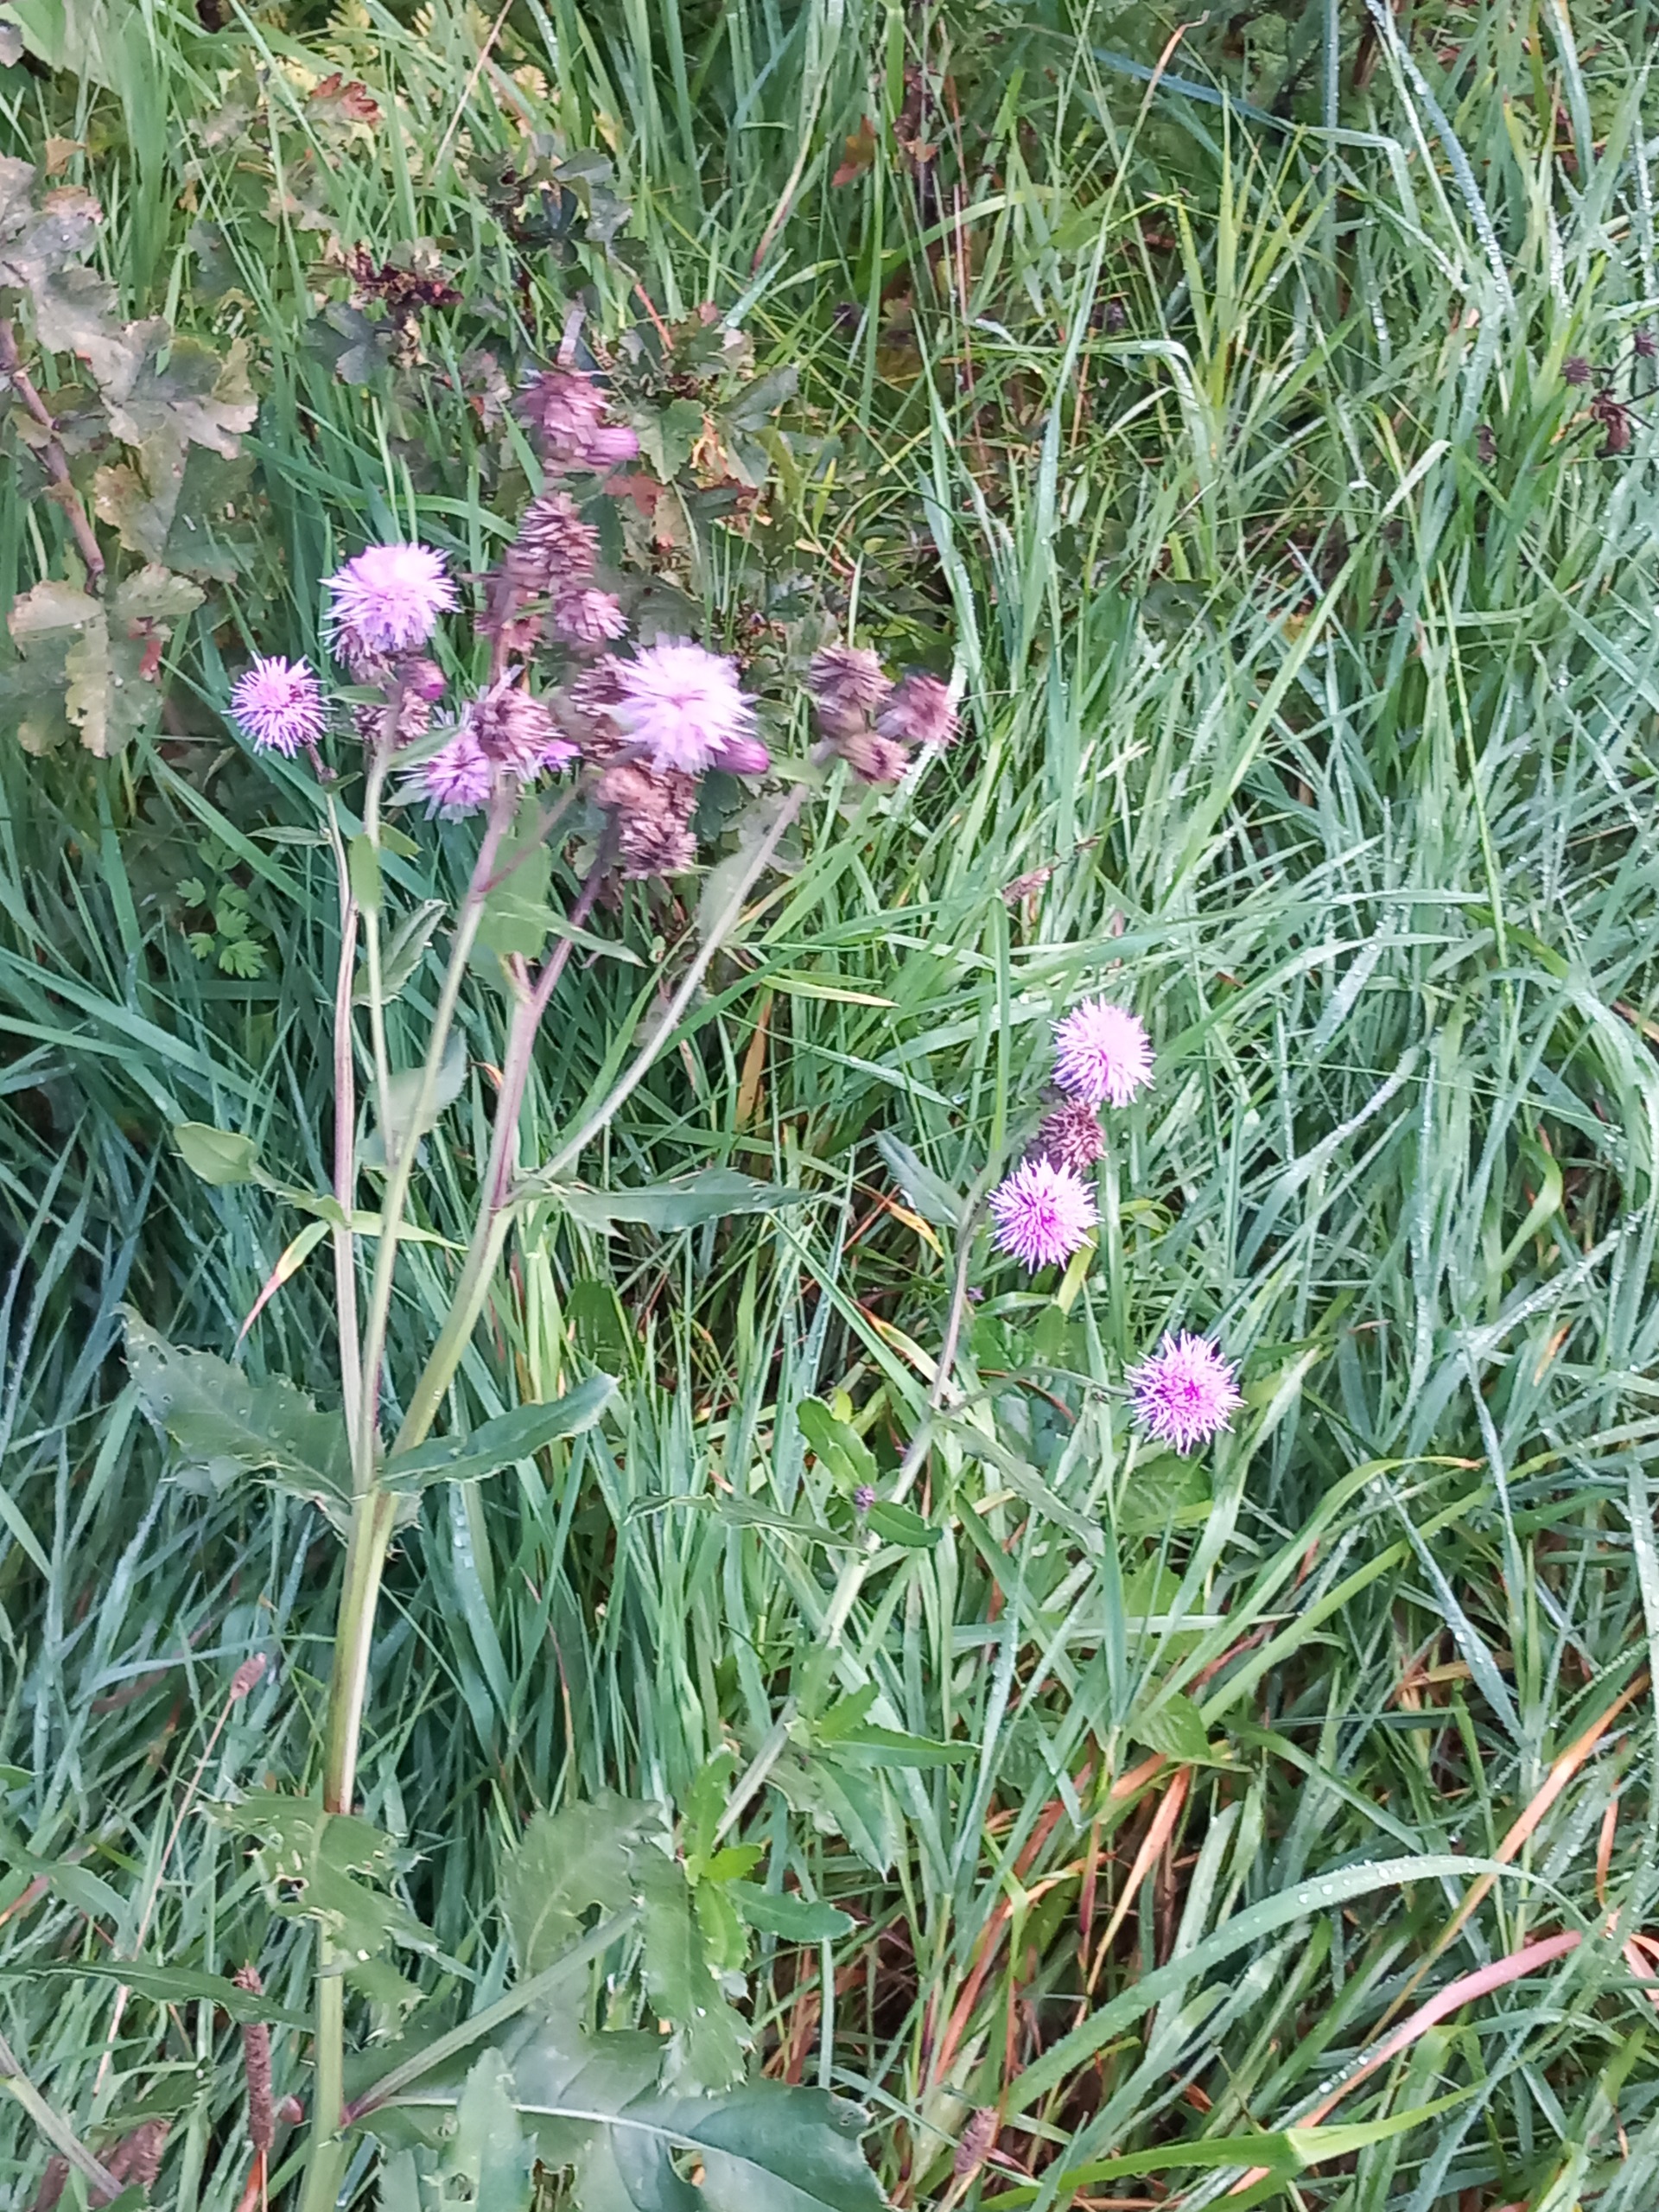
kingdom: Plantae
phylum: Tracheophyta
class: Magnoliopsida
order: Asterales
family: Asteraceae
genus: Cirsium
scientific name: Cirsium arvense
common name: Ager-tidsel
